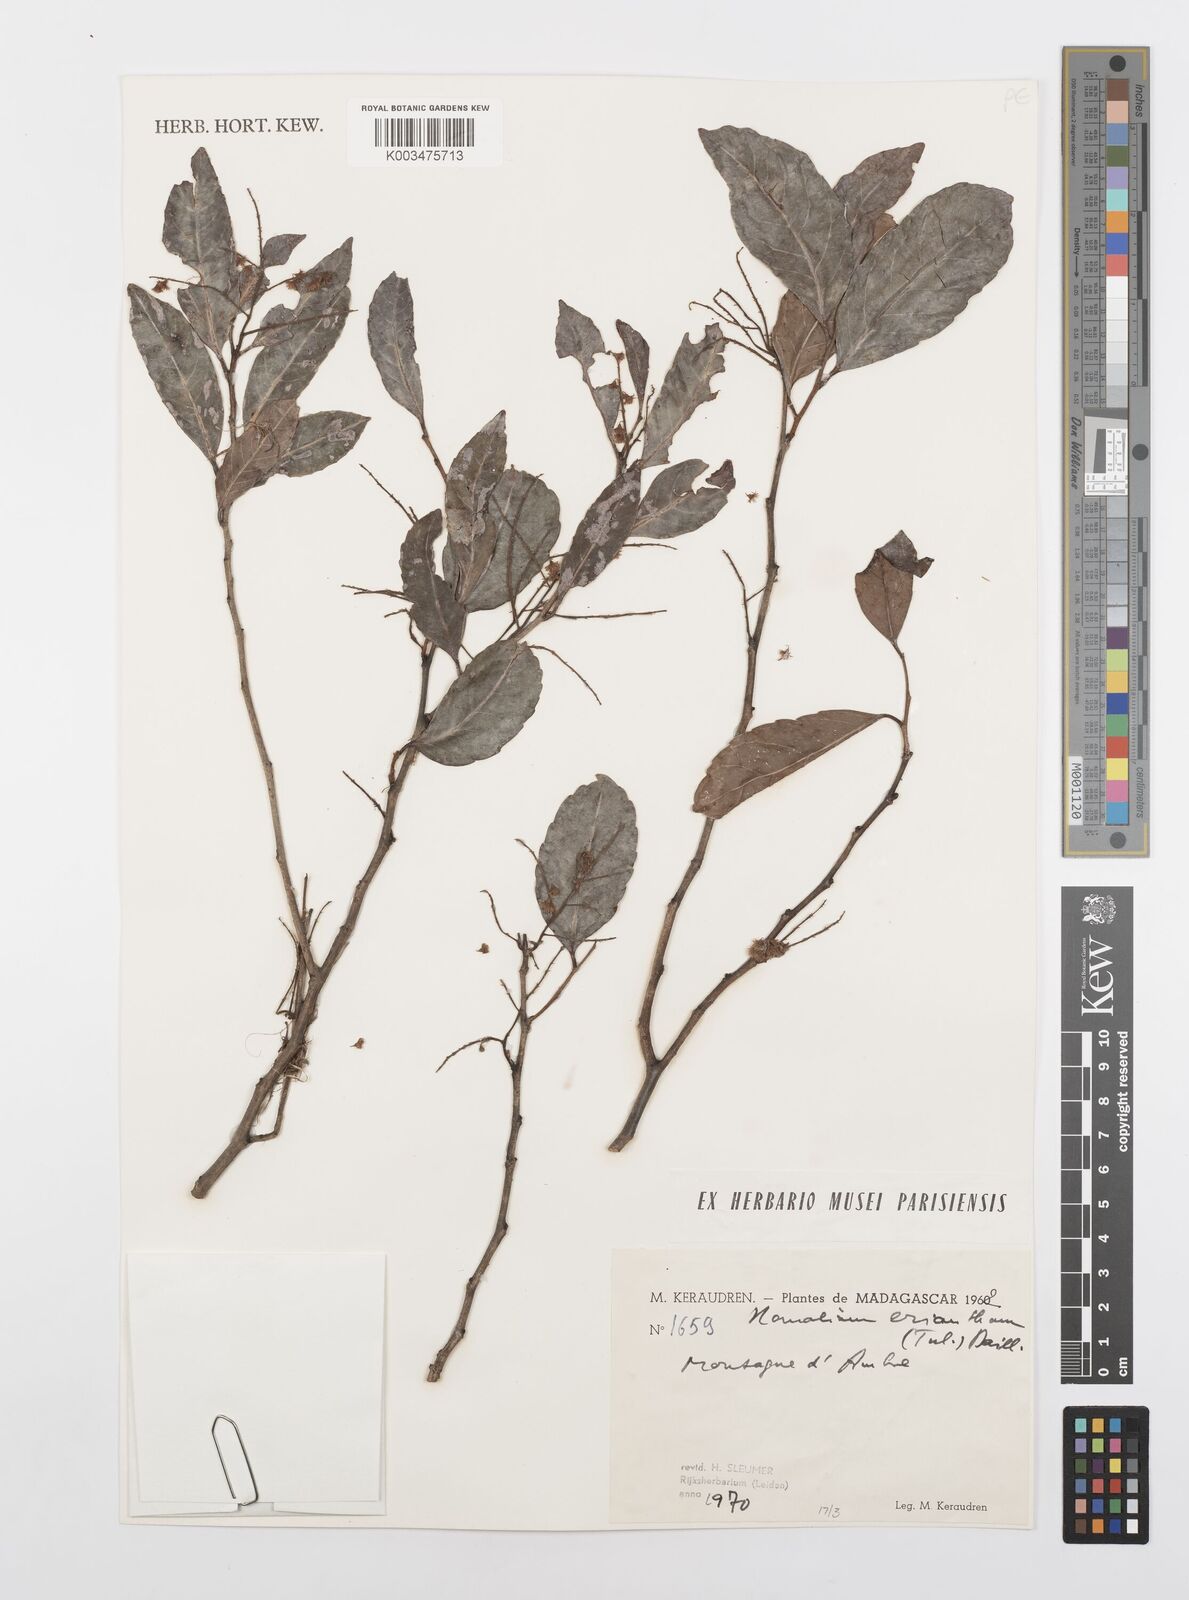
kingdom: Plantae
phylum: Tracheophyta
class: Magnoliopsida
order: Malpighiales
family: Salicaceae
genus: Homalium
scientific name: Homalium erianthum
